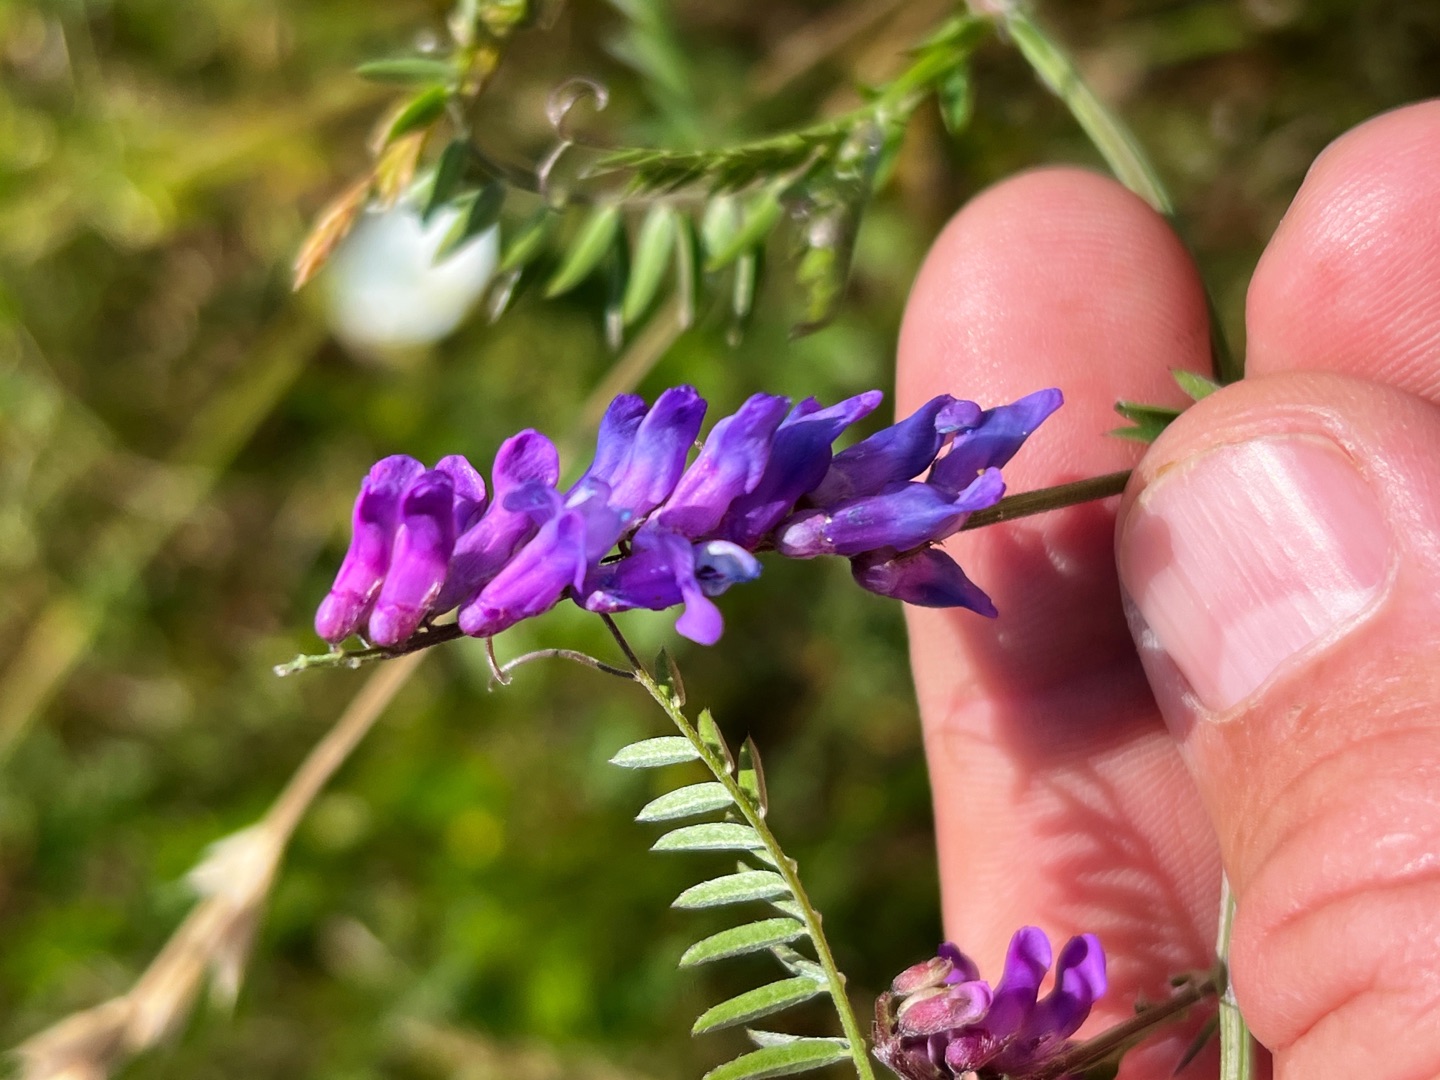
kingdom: Plantae
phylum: Tracheophyta
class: Magnoliopsida
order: Fabales
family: Fabaceae
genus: Vicia
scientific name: Vicia cracca
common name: Muse-vikke
